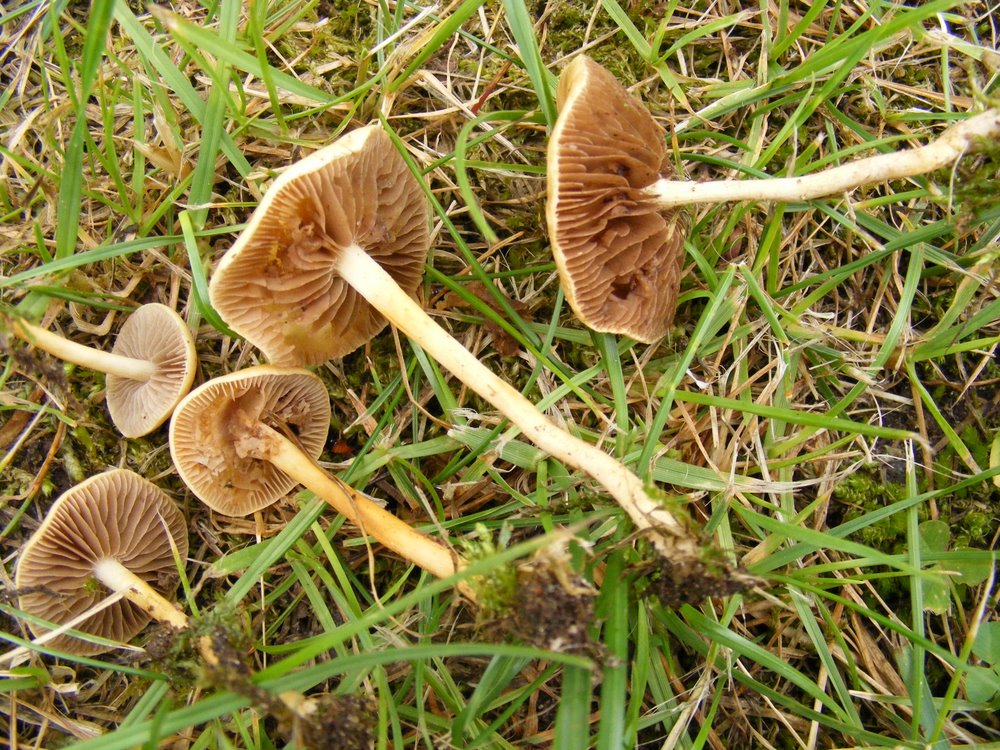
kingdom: Fungi
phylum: Basidiomycota
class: Agaricomycetes
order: Agaricales
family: Strophariaceae
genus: Agrocybe
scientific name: Agrocybe pediades
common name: almindelig agerhat
